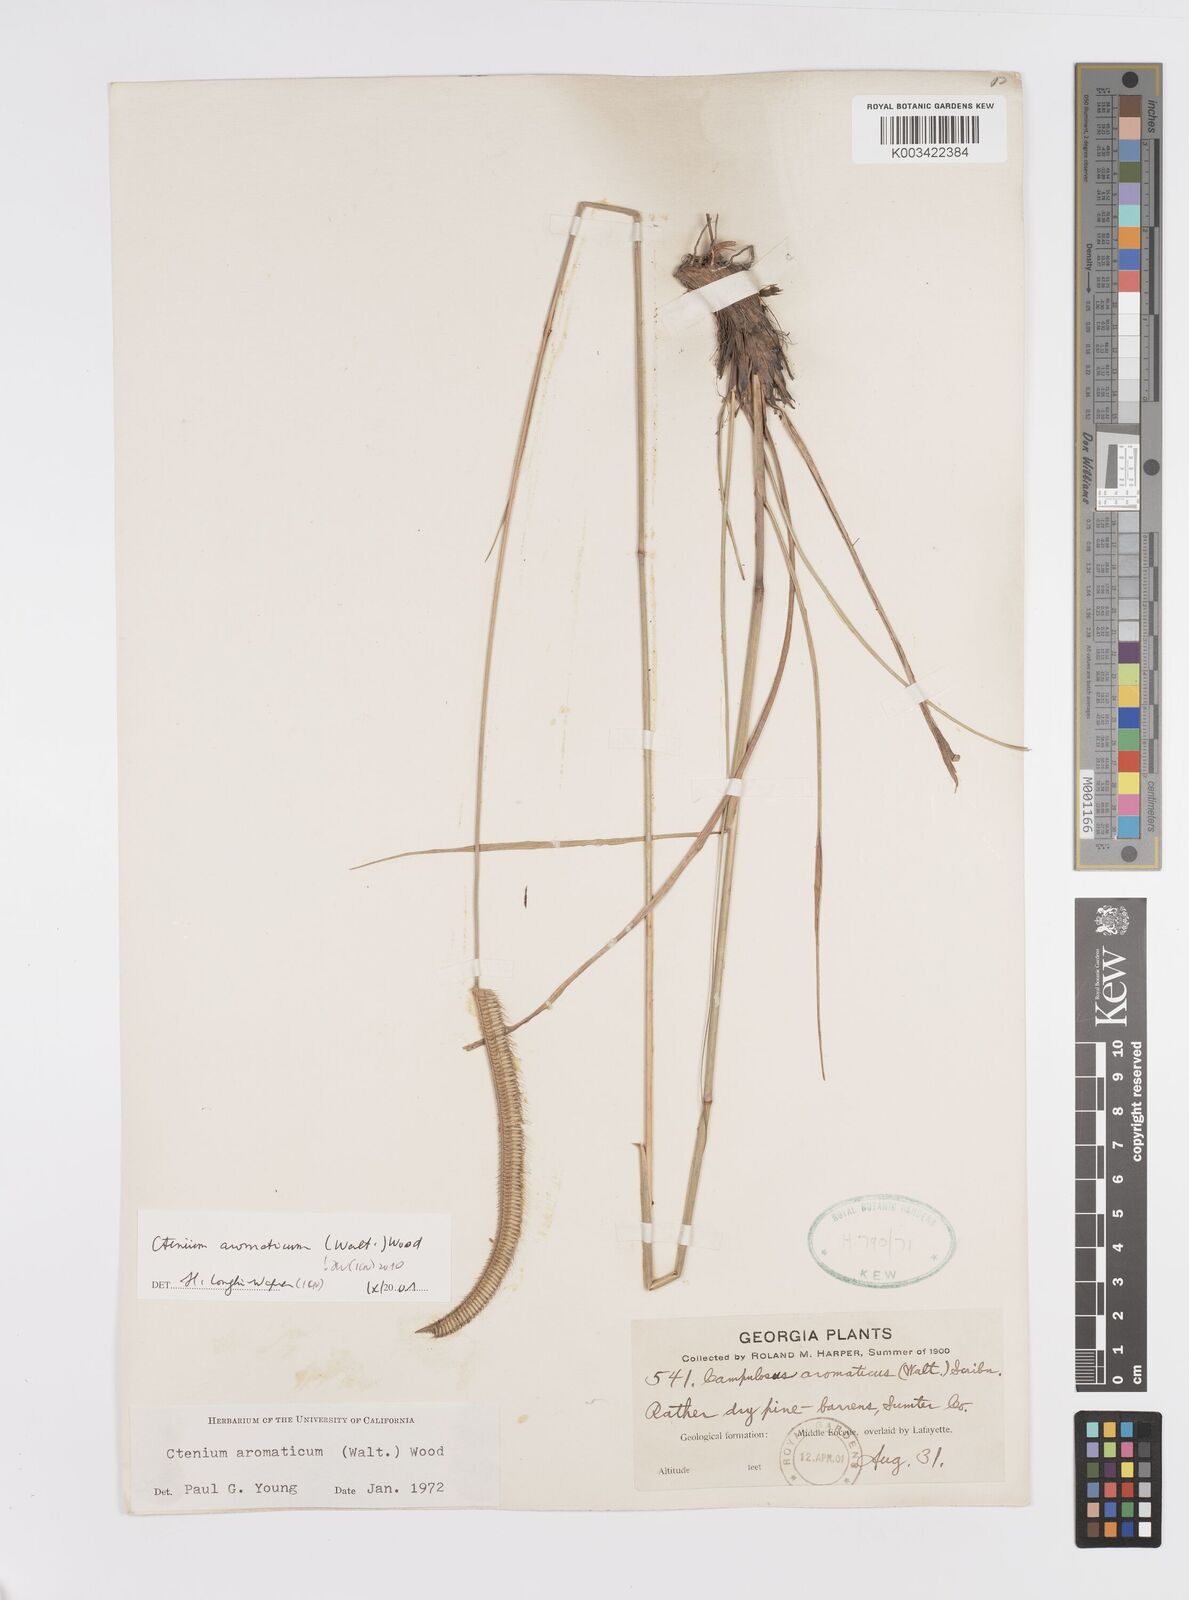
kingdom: Plantae
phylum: Tracheophyta
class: Liliopsida
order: Poales
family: Poaceae
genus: Ctenium
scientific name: Ctenium aromaticum
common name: Toothache grass
